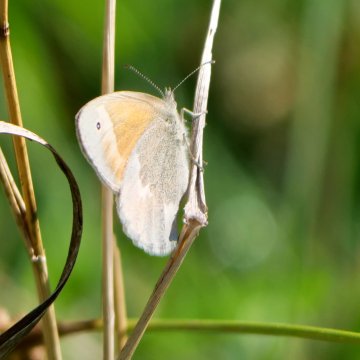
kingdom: Animalia
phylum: Arthropoda
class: Insecta
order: Lepidoptera
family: Nymphalidae
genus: Coenonympha
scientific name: Coenonympha tullia
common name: Large Heath
